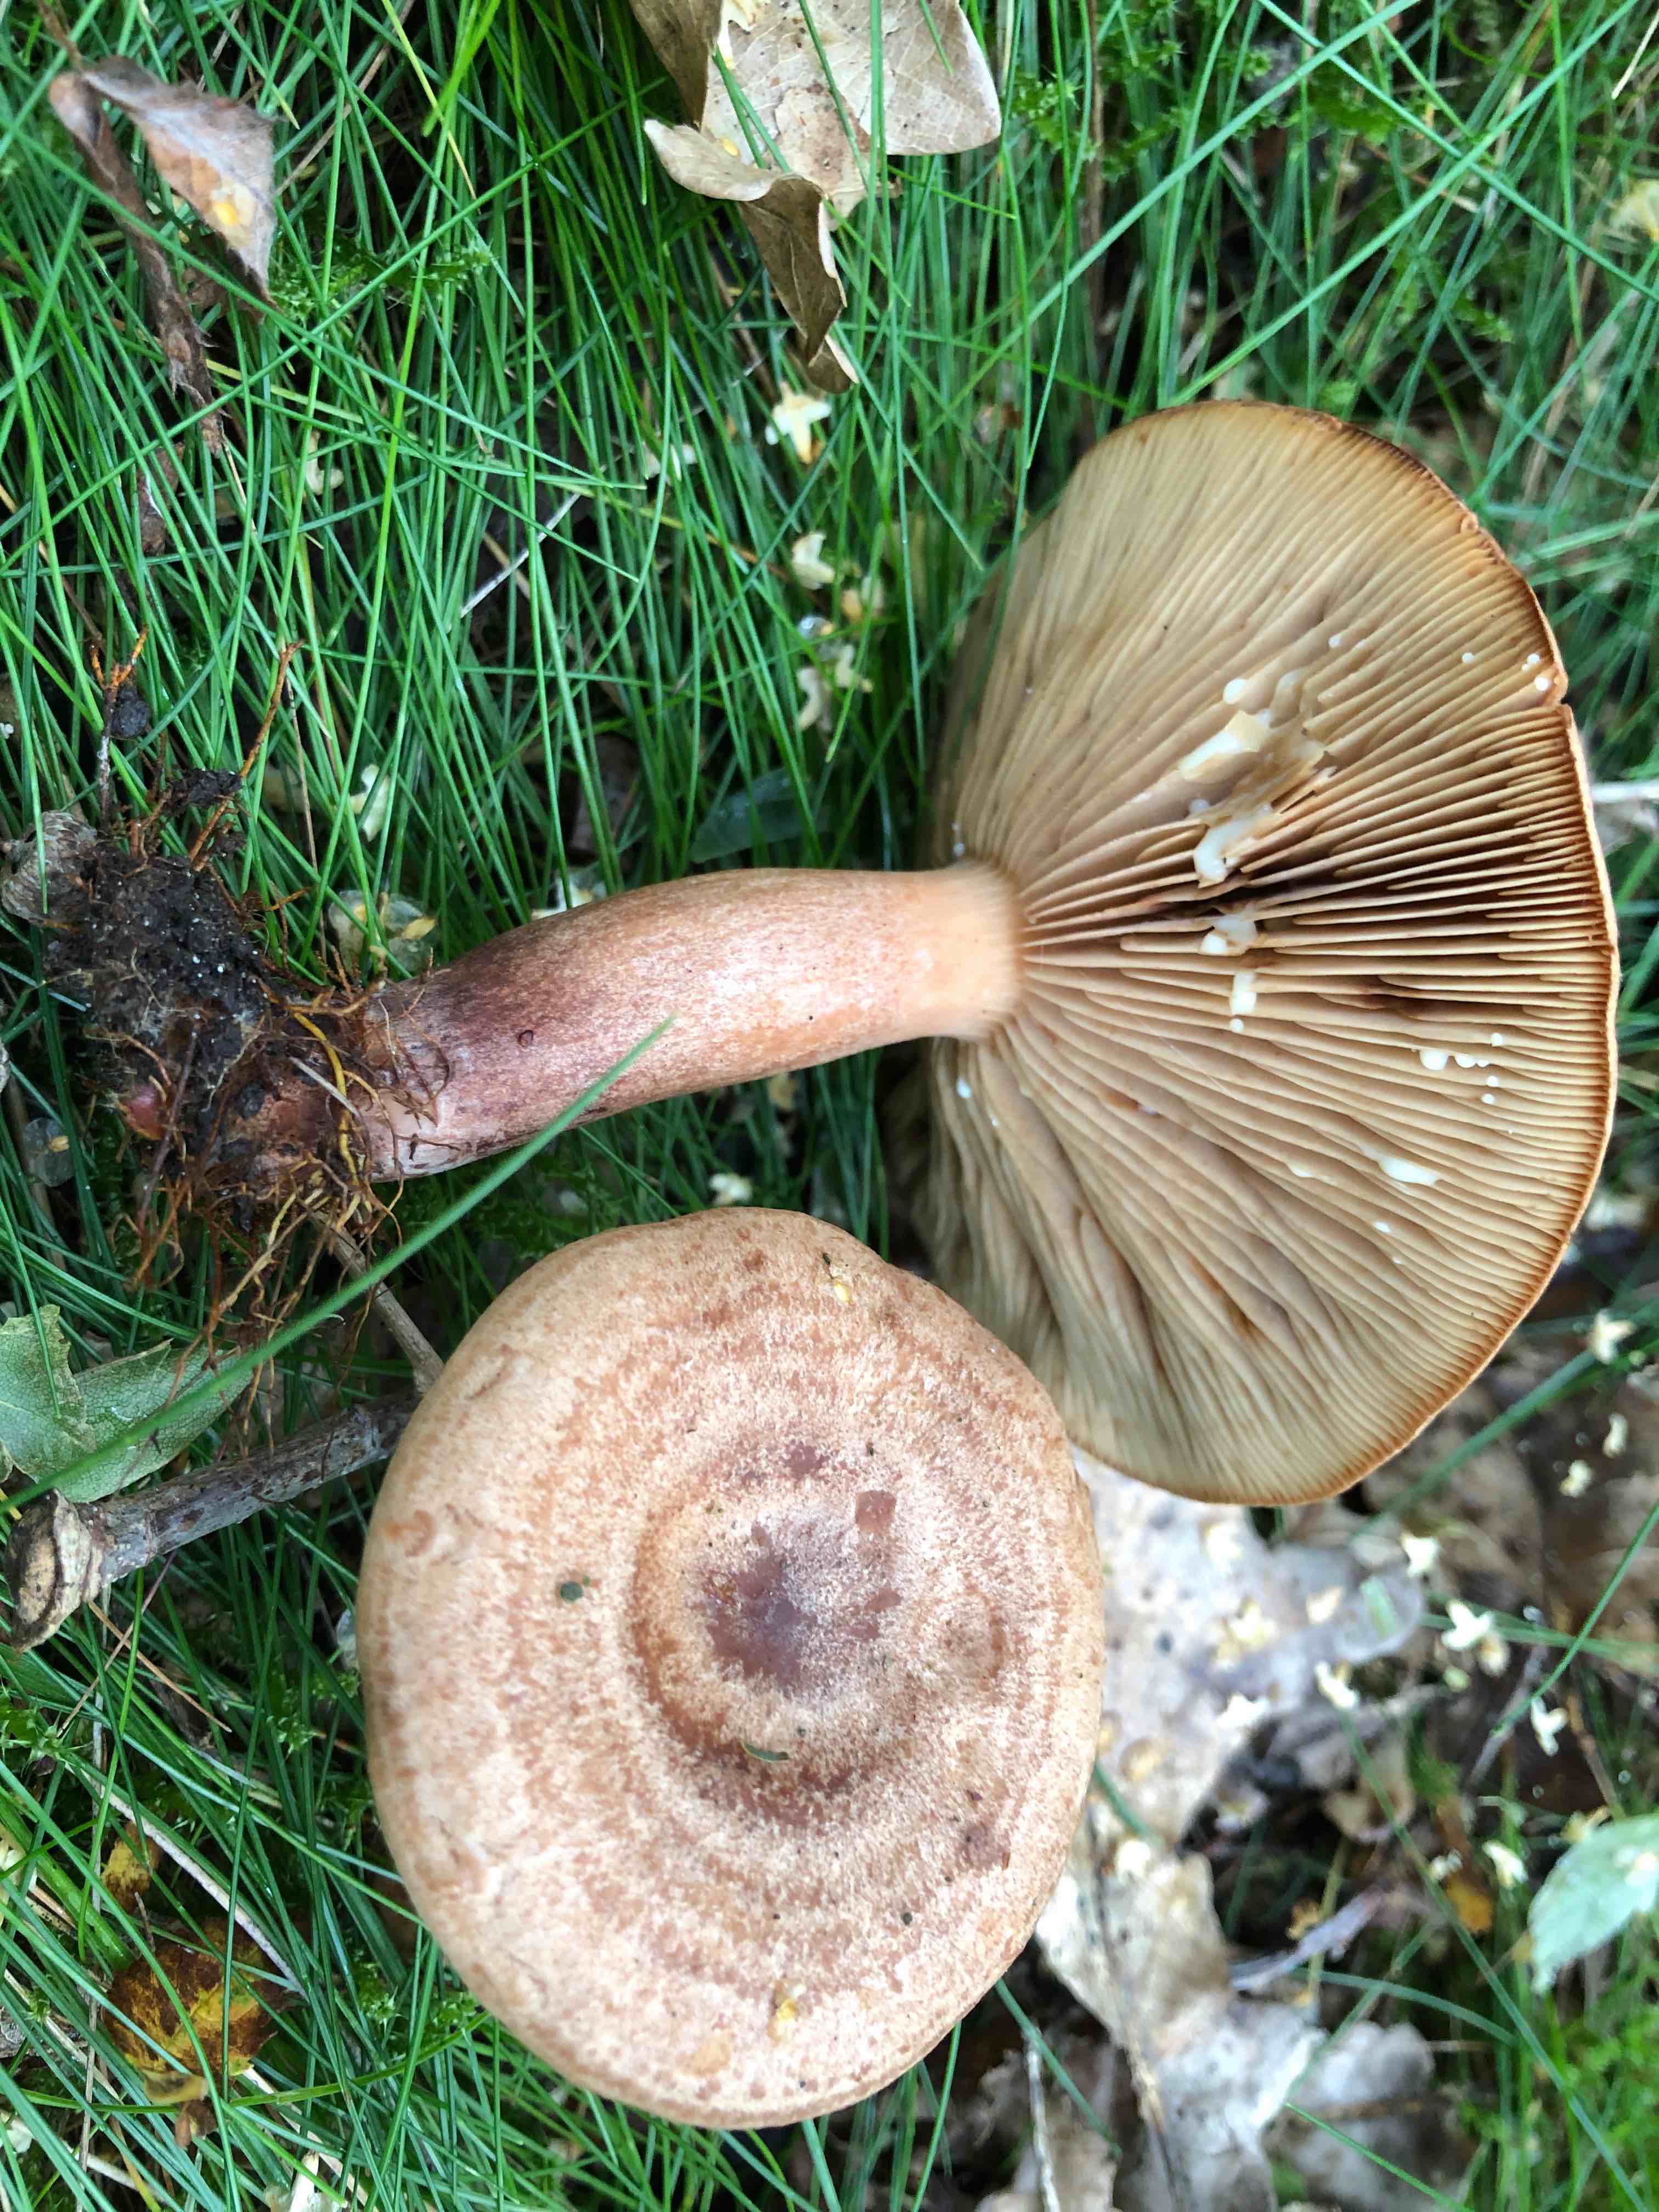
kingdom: Fungi
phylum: Basidiomycota
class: Agaricomycetes
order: Russulales
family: Russulaceae
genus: Lactarius
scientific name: Lactarius quietus
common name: ege-mælkehat
